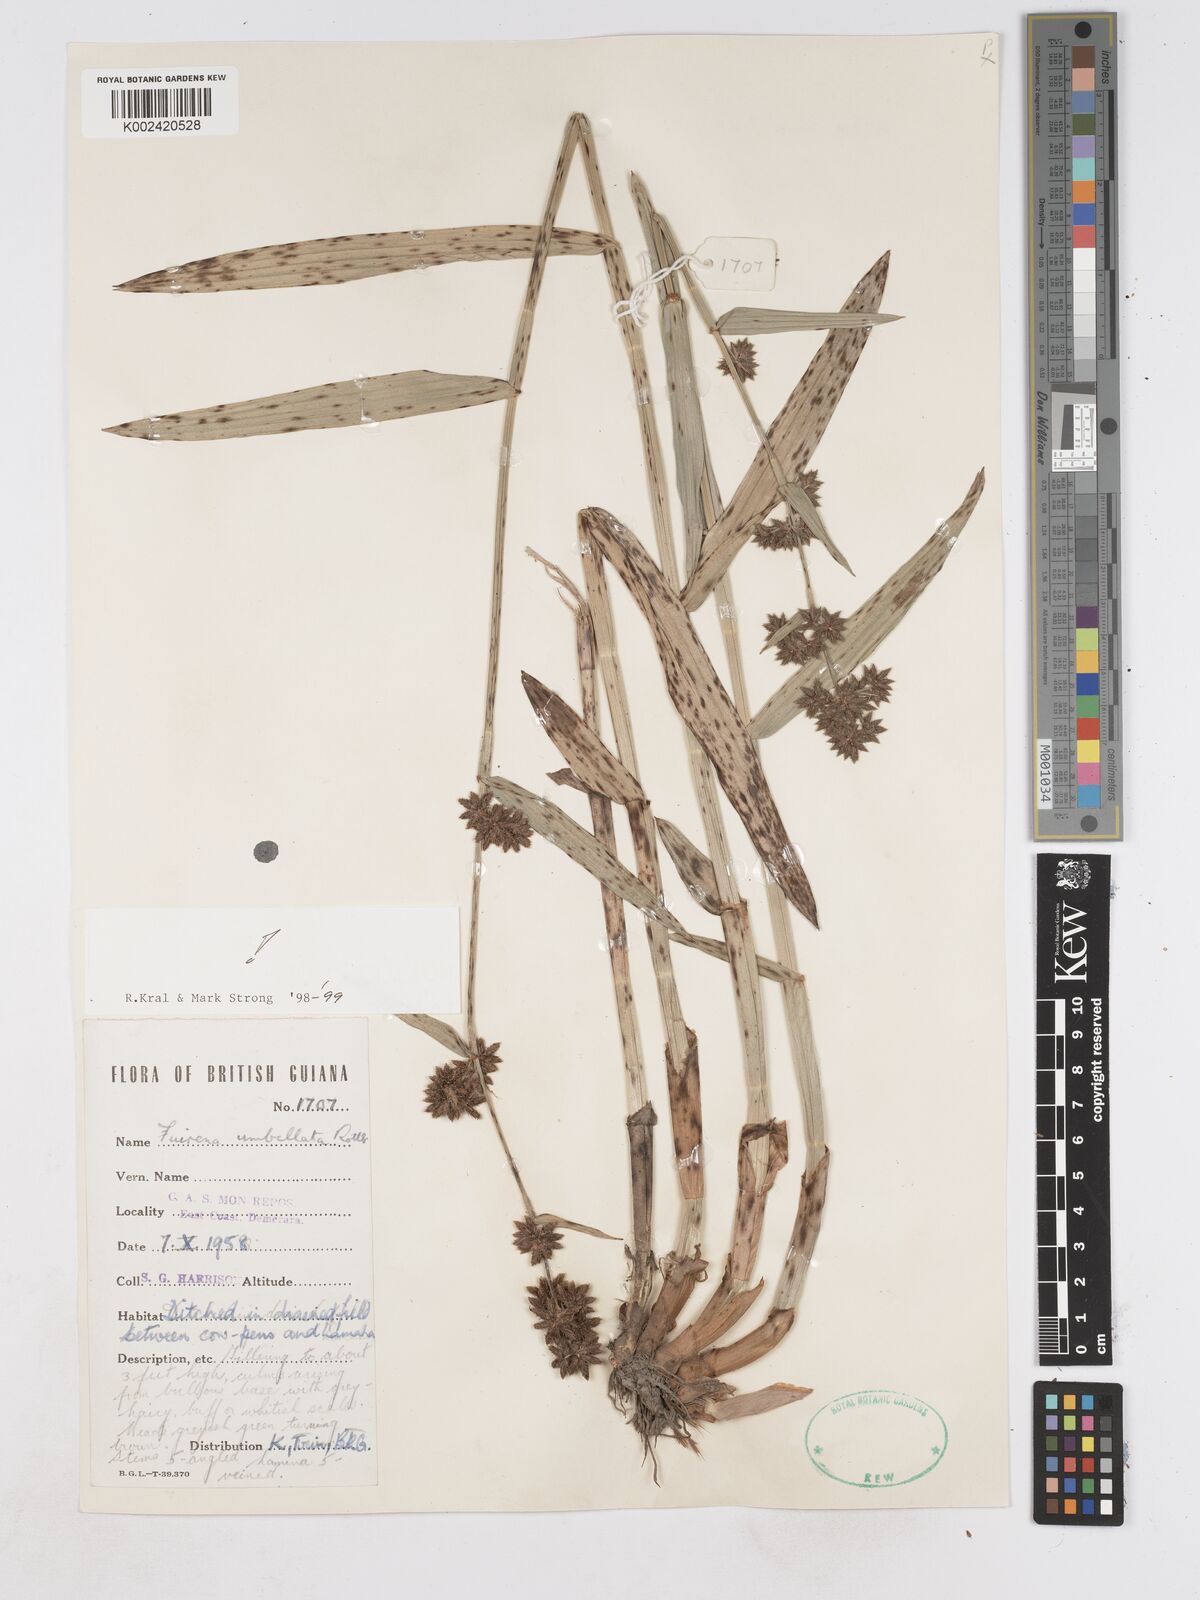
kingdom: Plantae
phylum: Tracheophyta
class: Liliopsida
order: Poales
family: Cyperaceae
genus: Fuirena
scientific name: Fuirena umbellata
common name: Yefen
